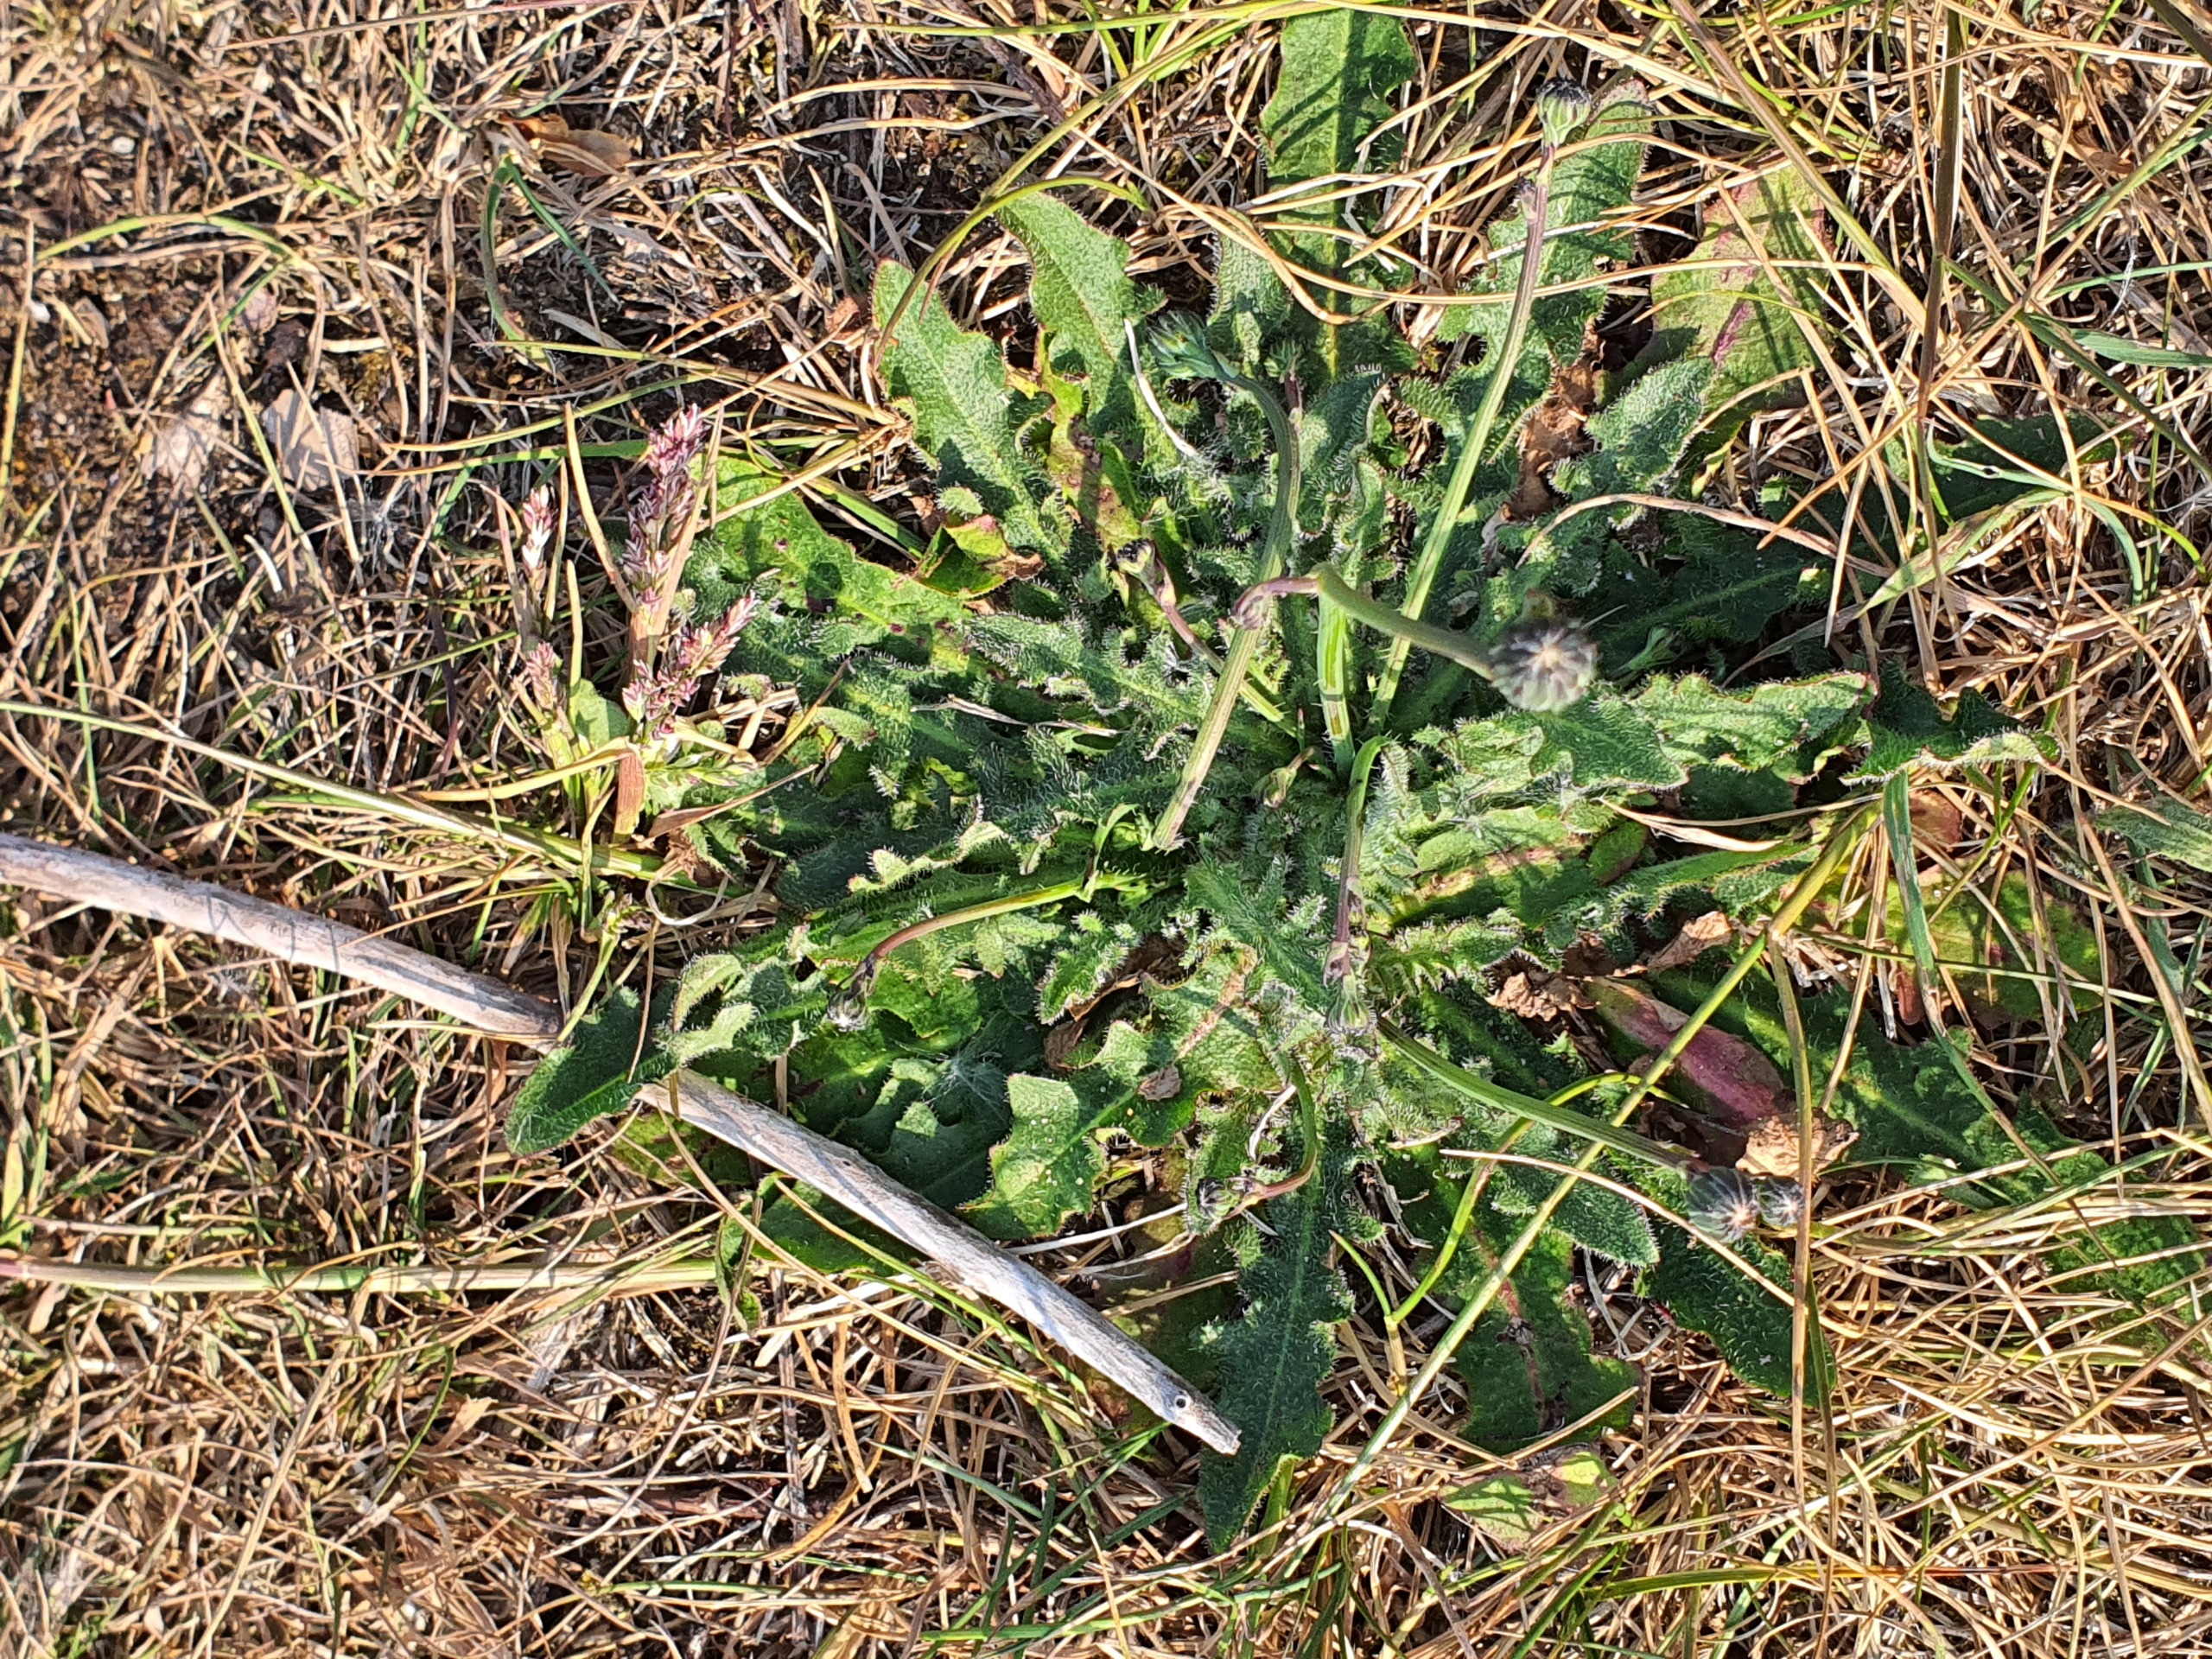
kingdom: Plantae
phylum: Tracheophyta
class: Magnoliopsida
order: Asterales
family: Asteraceae
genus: Hypochaeris
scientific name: Hypochaeris radicata
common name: Almindelig kongepen
